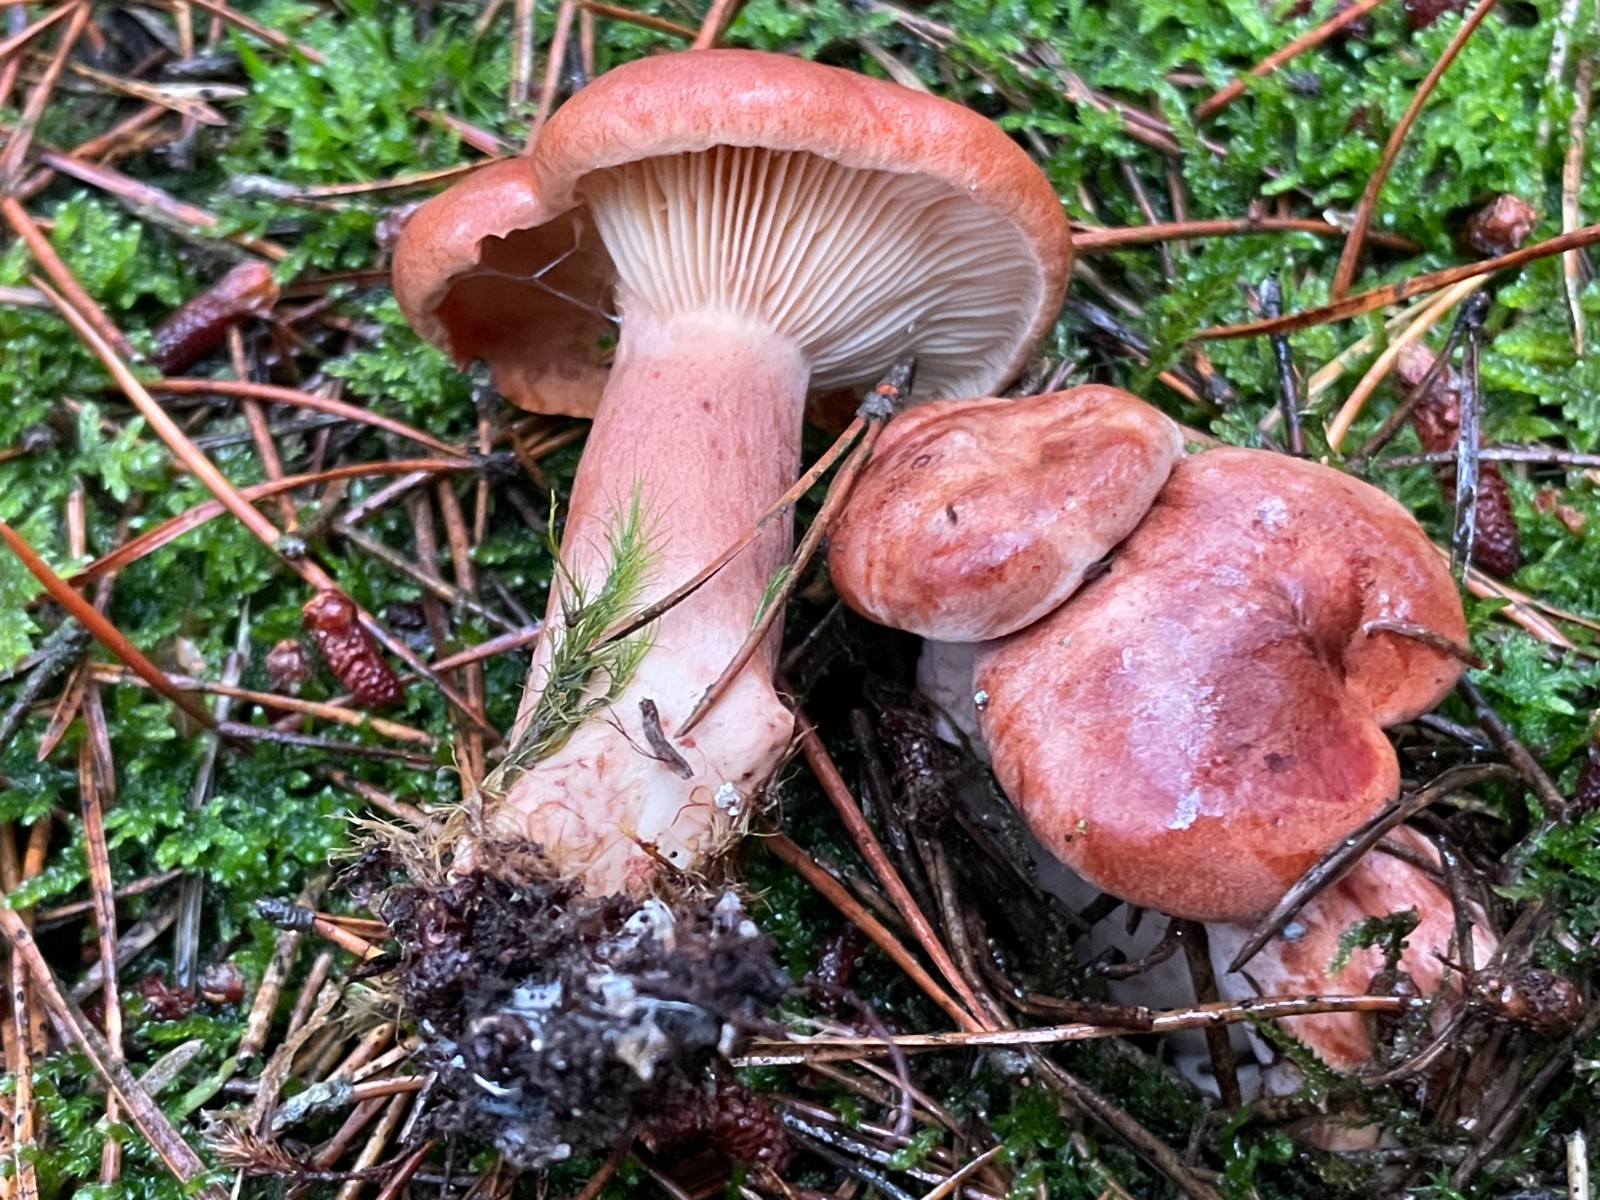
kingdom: Fungi
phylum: Basidiomycota
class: Agaricomycetes
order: Russulales
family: Russulaceae
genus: Lactarius
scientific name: Lactarius rufus
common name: rødbrun mælkehat
